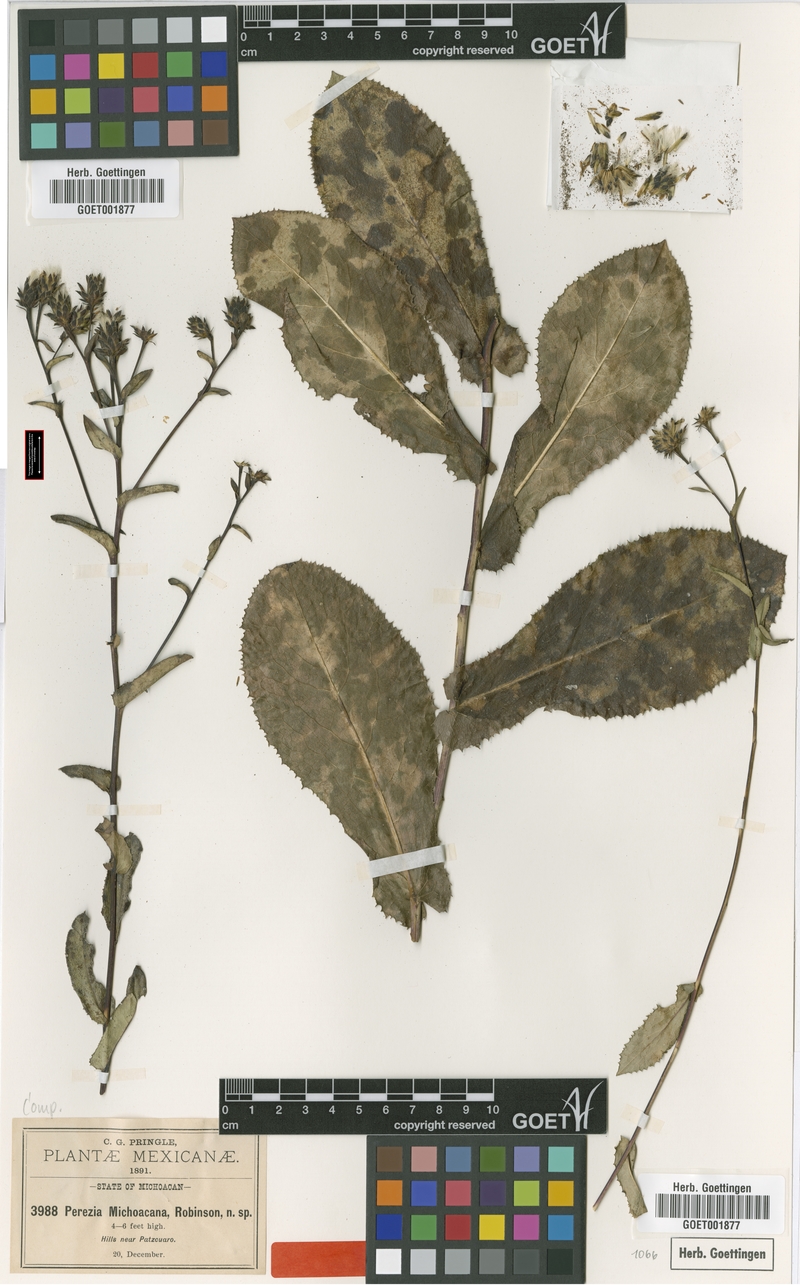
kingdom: Plantae
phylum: Tracheophyta
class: Magnoliopsida
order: Asterales
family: Asteraceae
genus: Acourtia
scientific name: Acourtia michoacana
